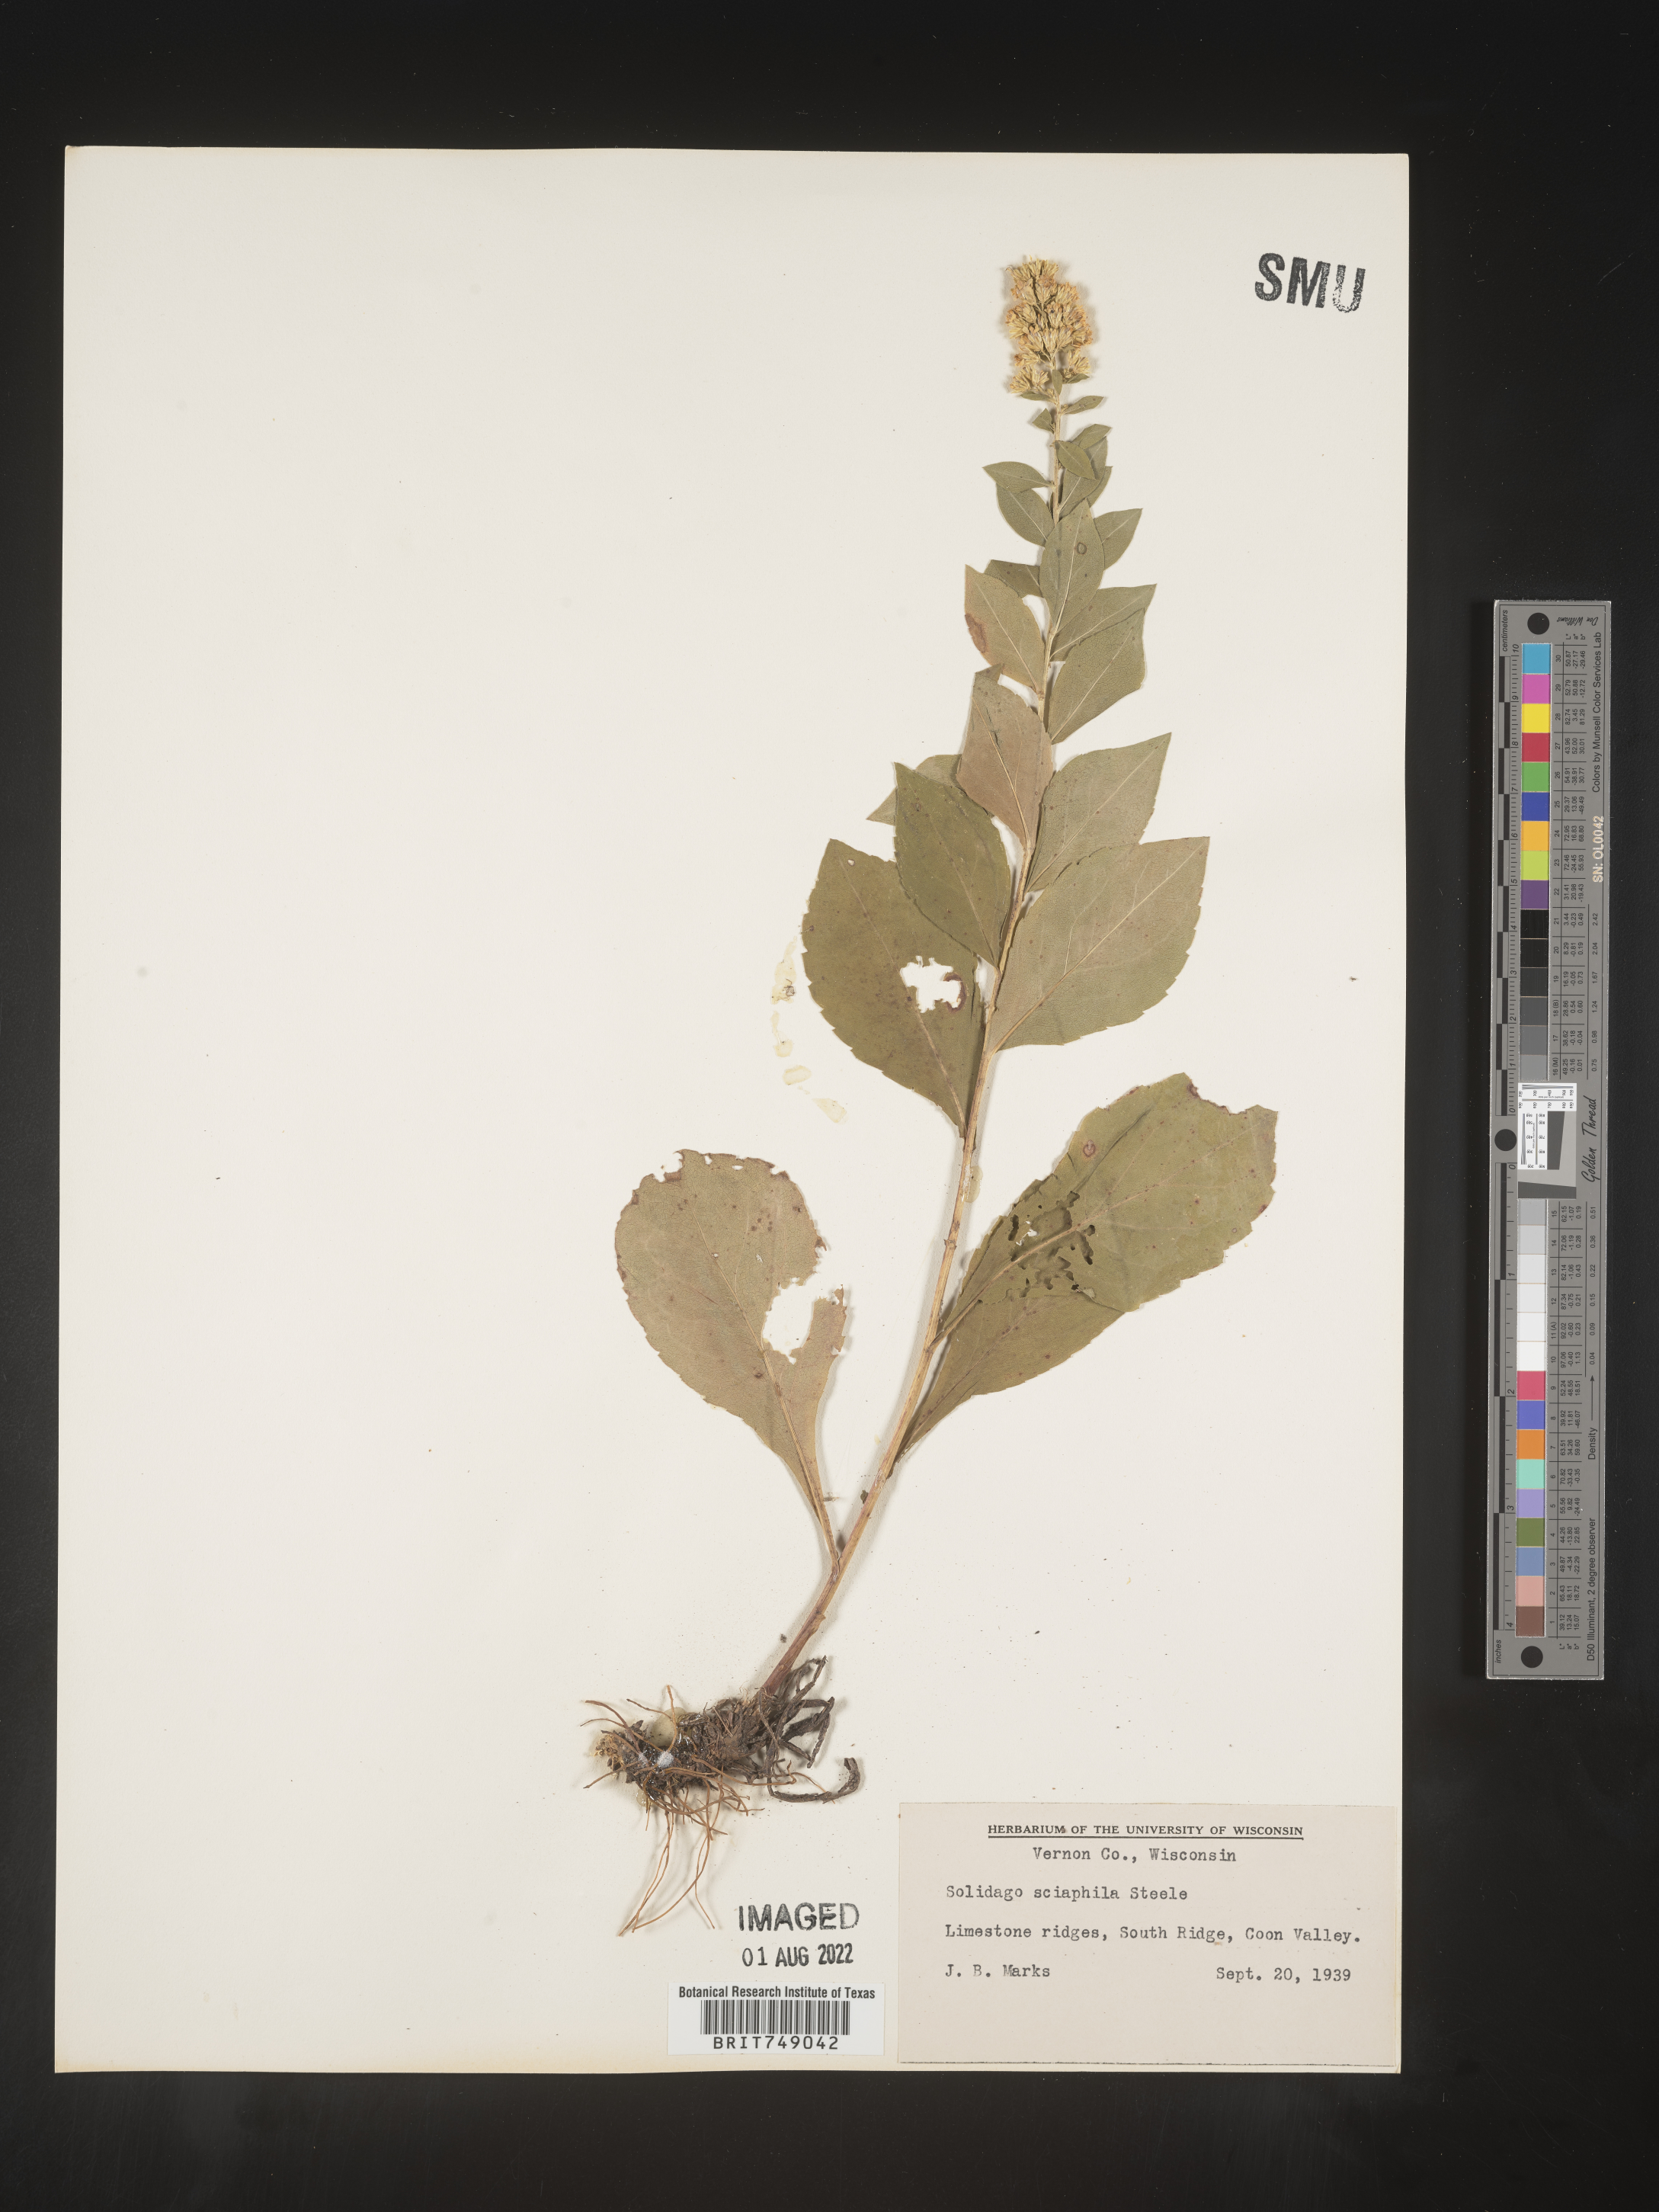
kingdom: Plantae
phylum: Tracheophyta
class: Magnoliopsida
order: Asterales
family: Asteraceae
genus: Solidago
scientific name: Solidago sciaphila
